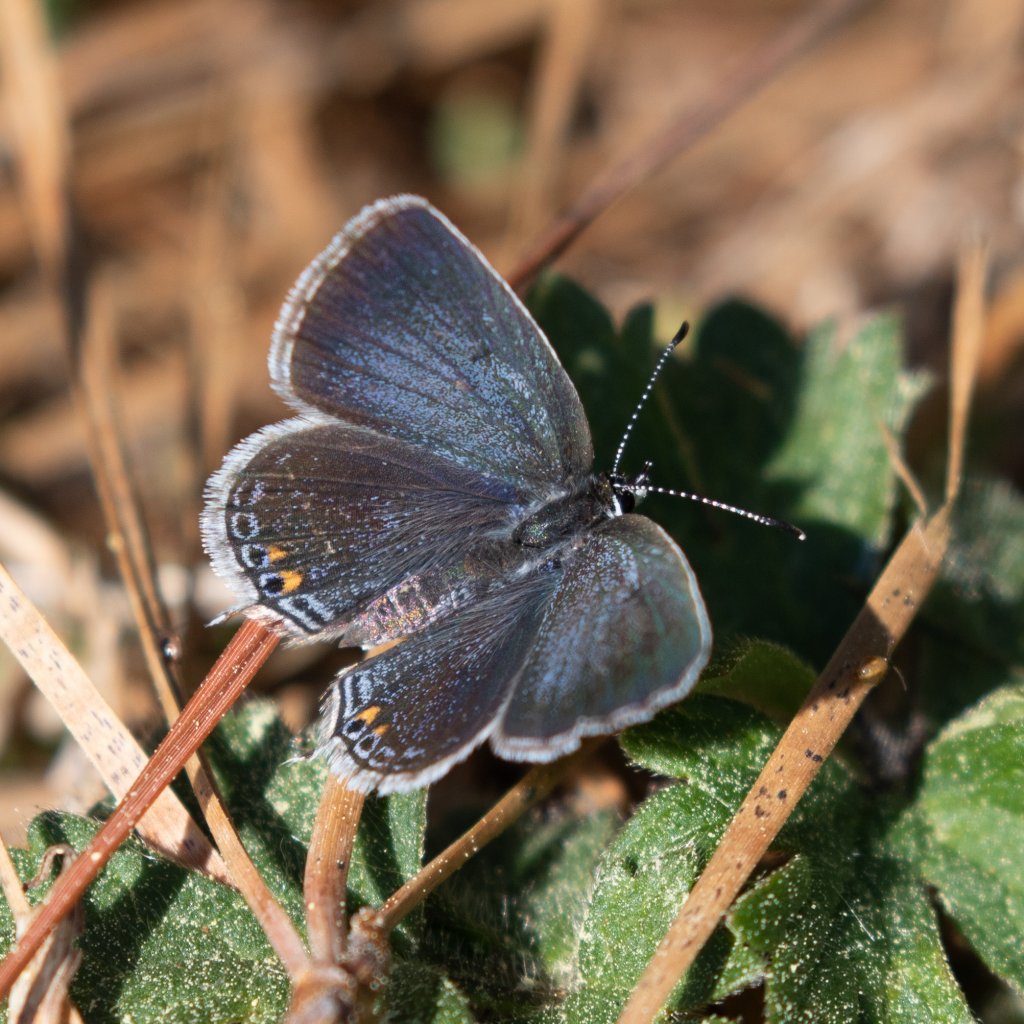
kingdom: Animalia
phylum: Arthropoda
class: Insecta
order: Lepidoptera
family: Lycaenidae
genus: Elkalyce
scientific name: Elkalyce comyntas
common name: Eastern Tailed-Blue
